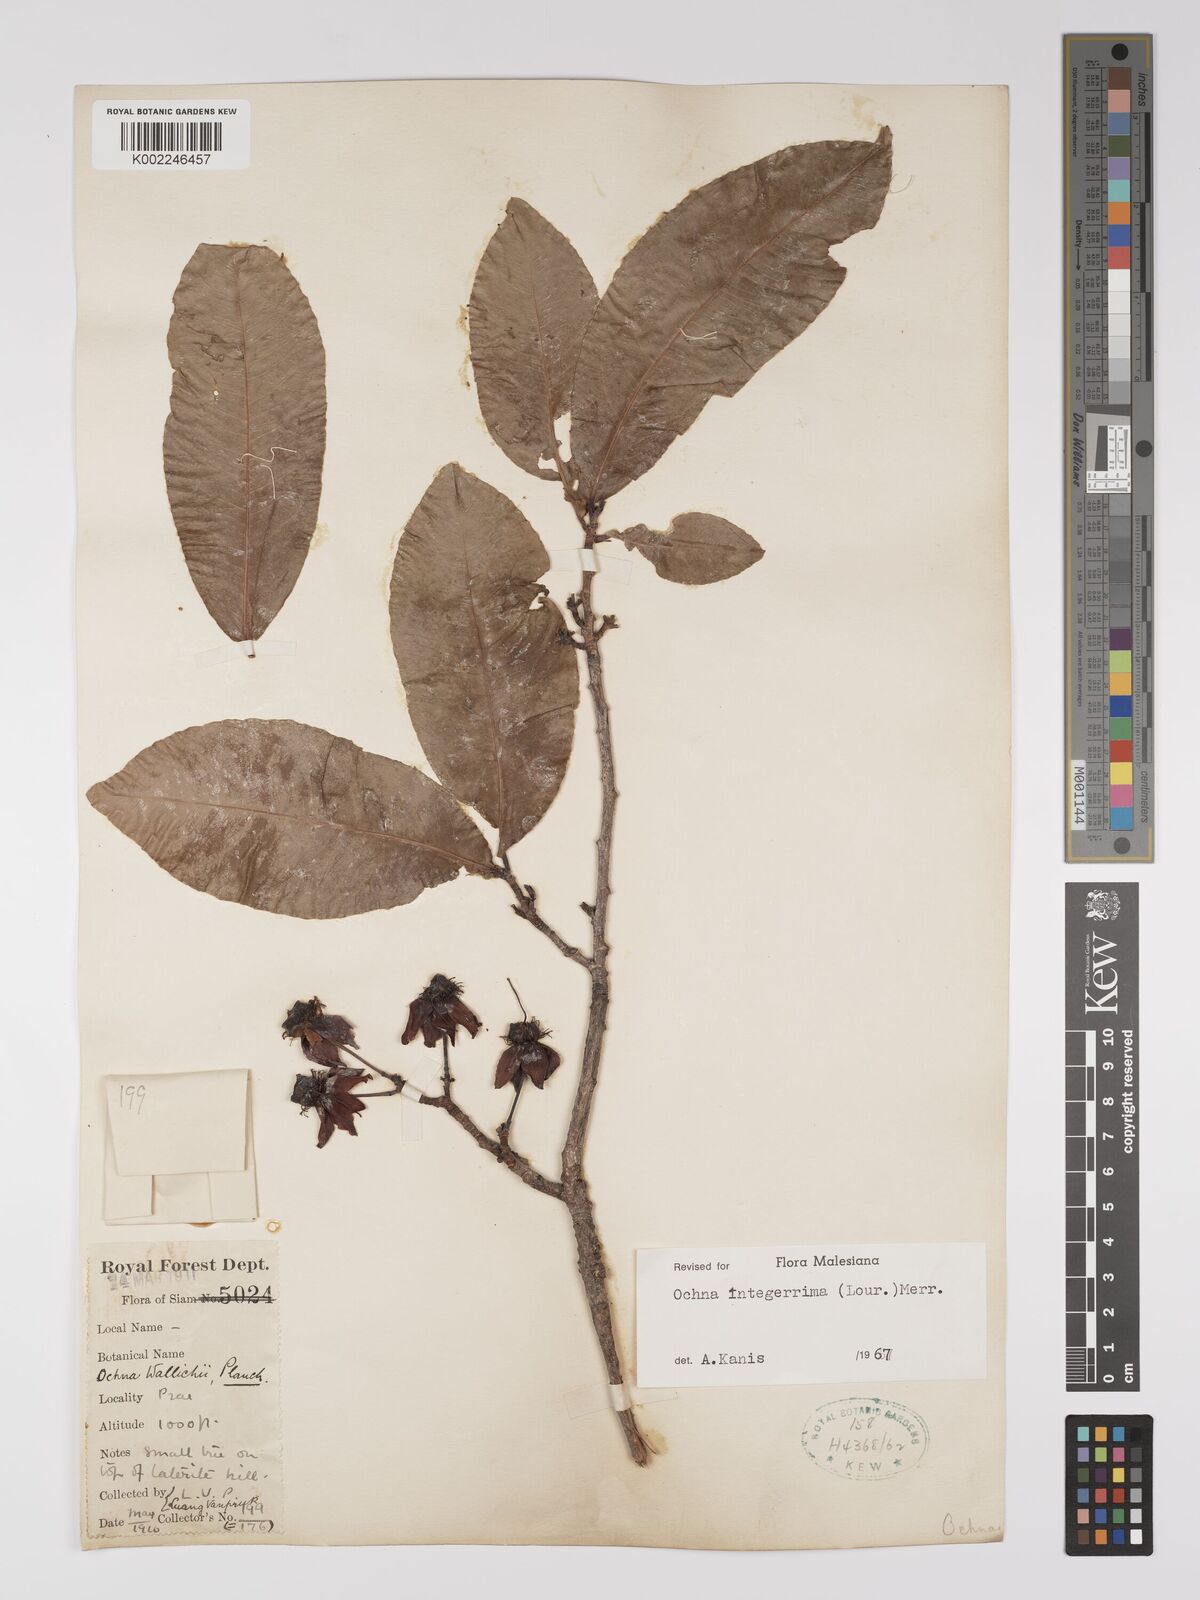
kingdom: Plantae
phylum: Tracheophyta
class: Magnoliopsida
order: Malpighiales
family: Ochnaceae
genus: Ochna
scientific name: Ochna integerrima
